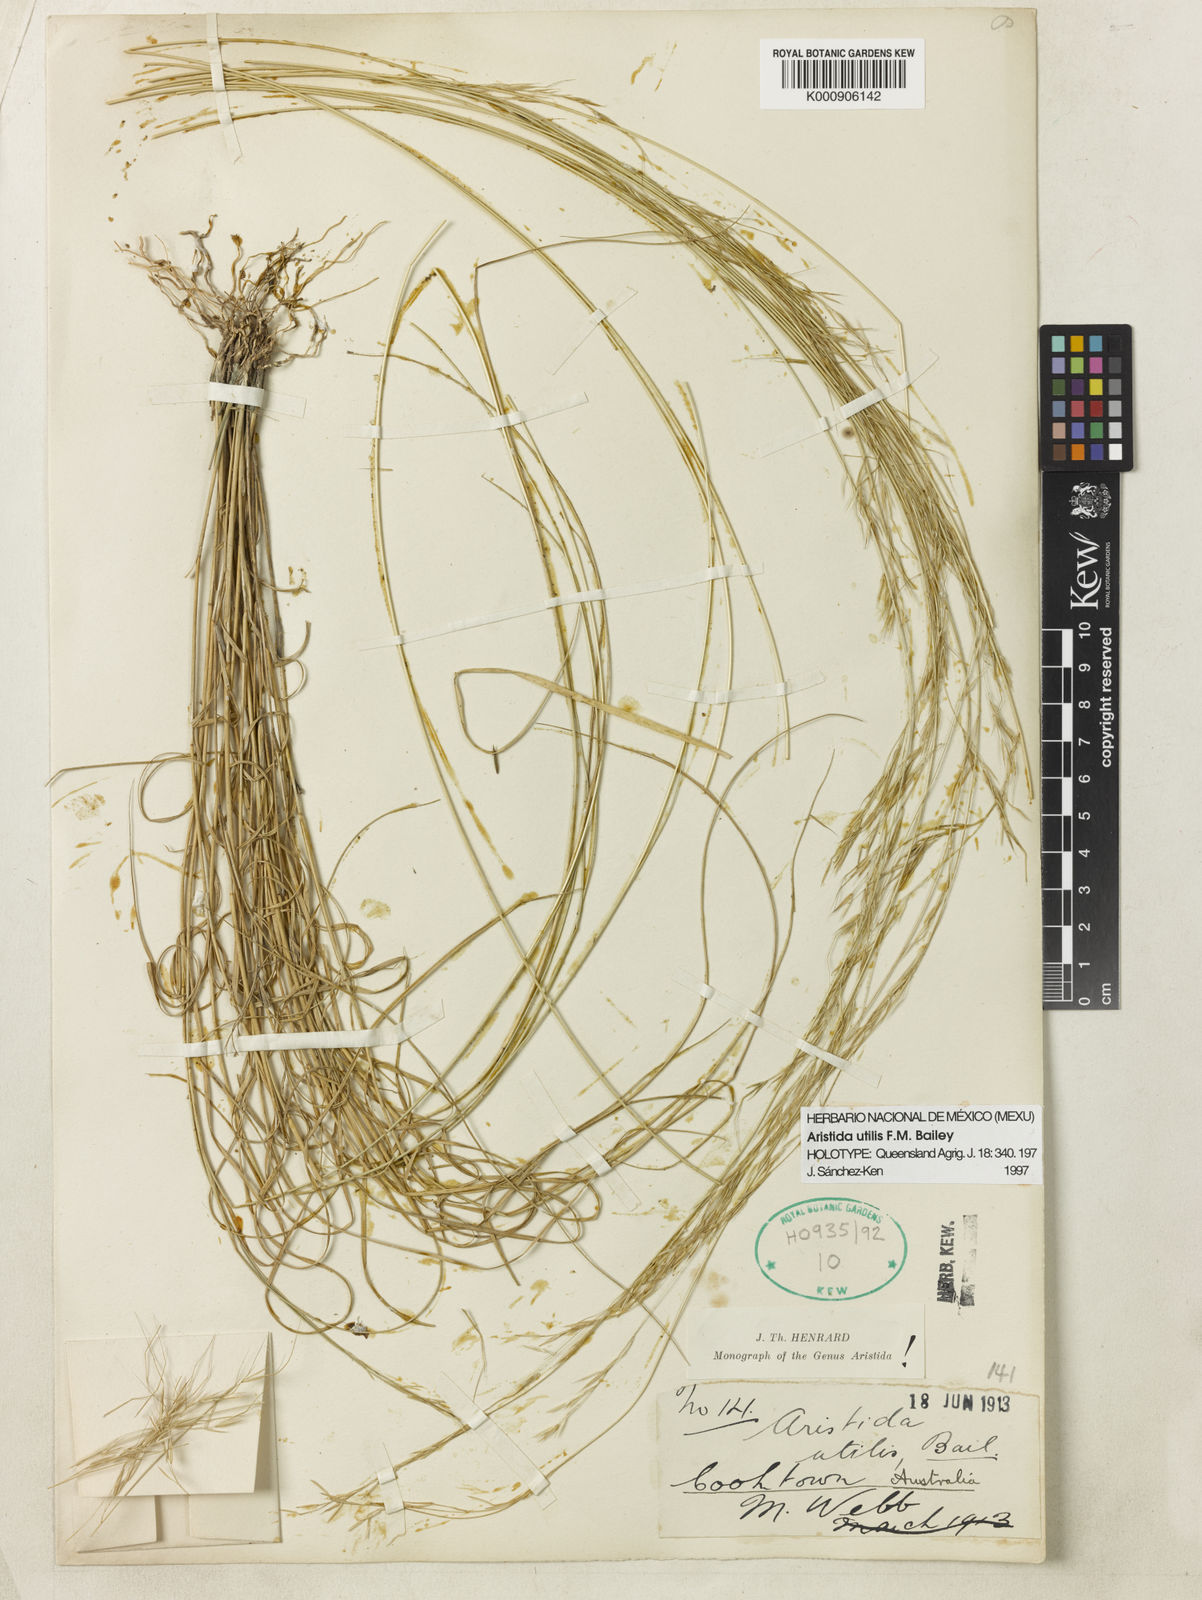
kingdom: Plantae
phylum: Tracheophyta
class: Liliopsida
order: Poales
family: Poaceae
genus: Aristida
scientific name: Aristida utilis
